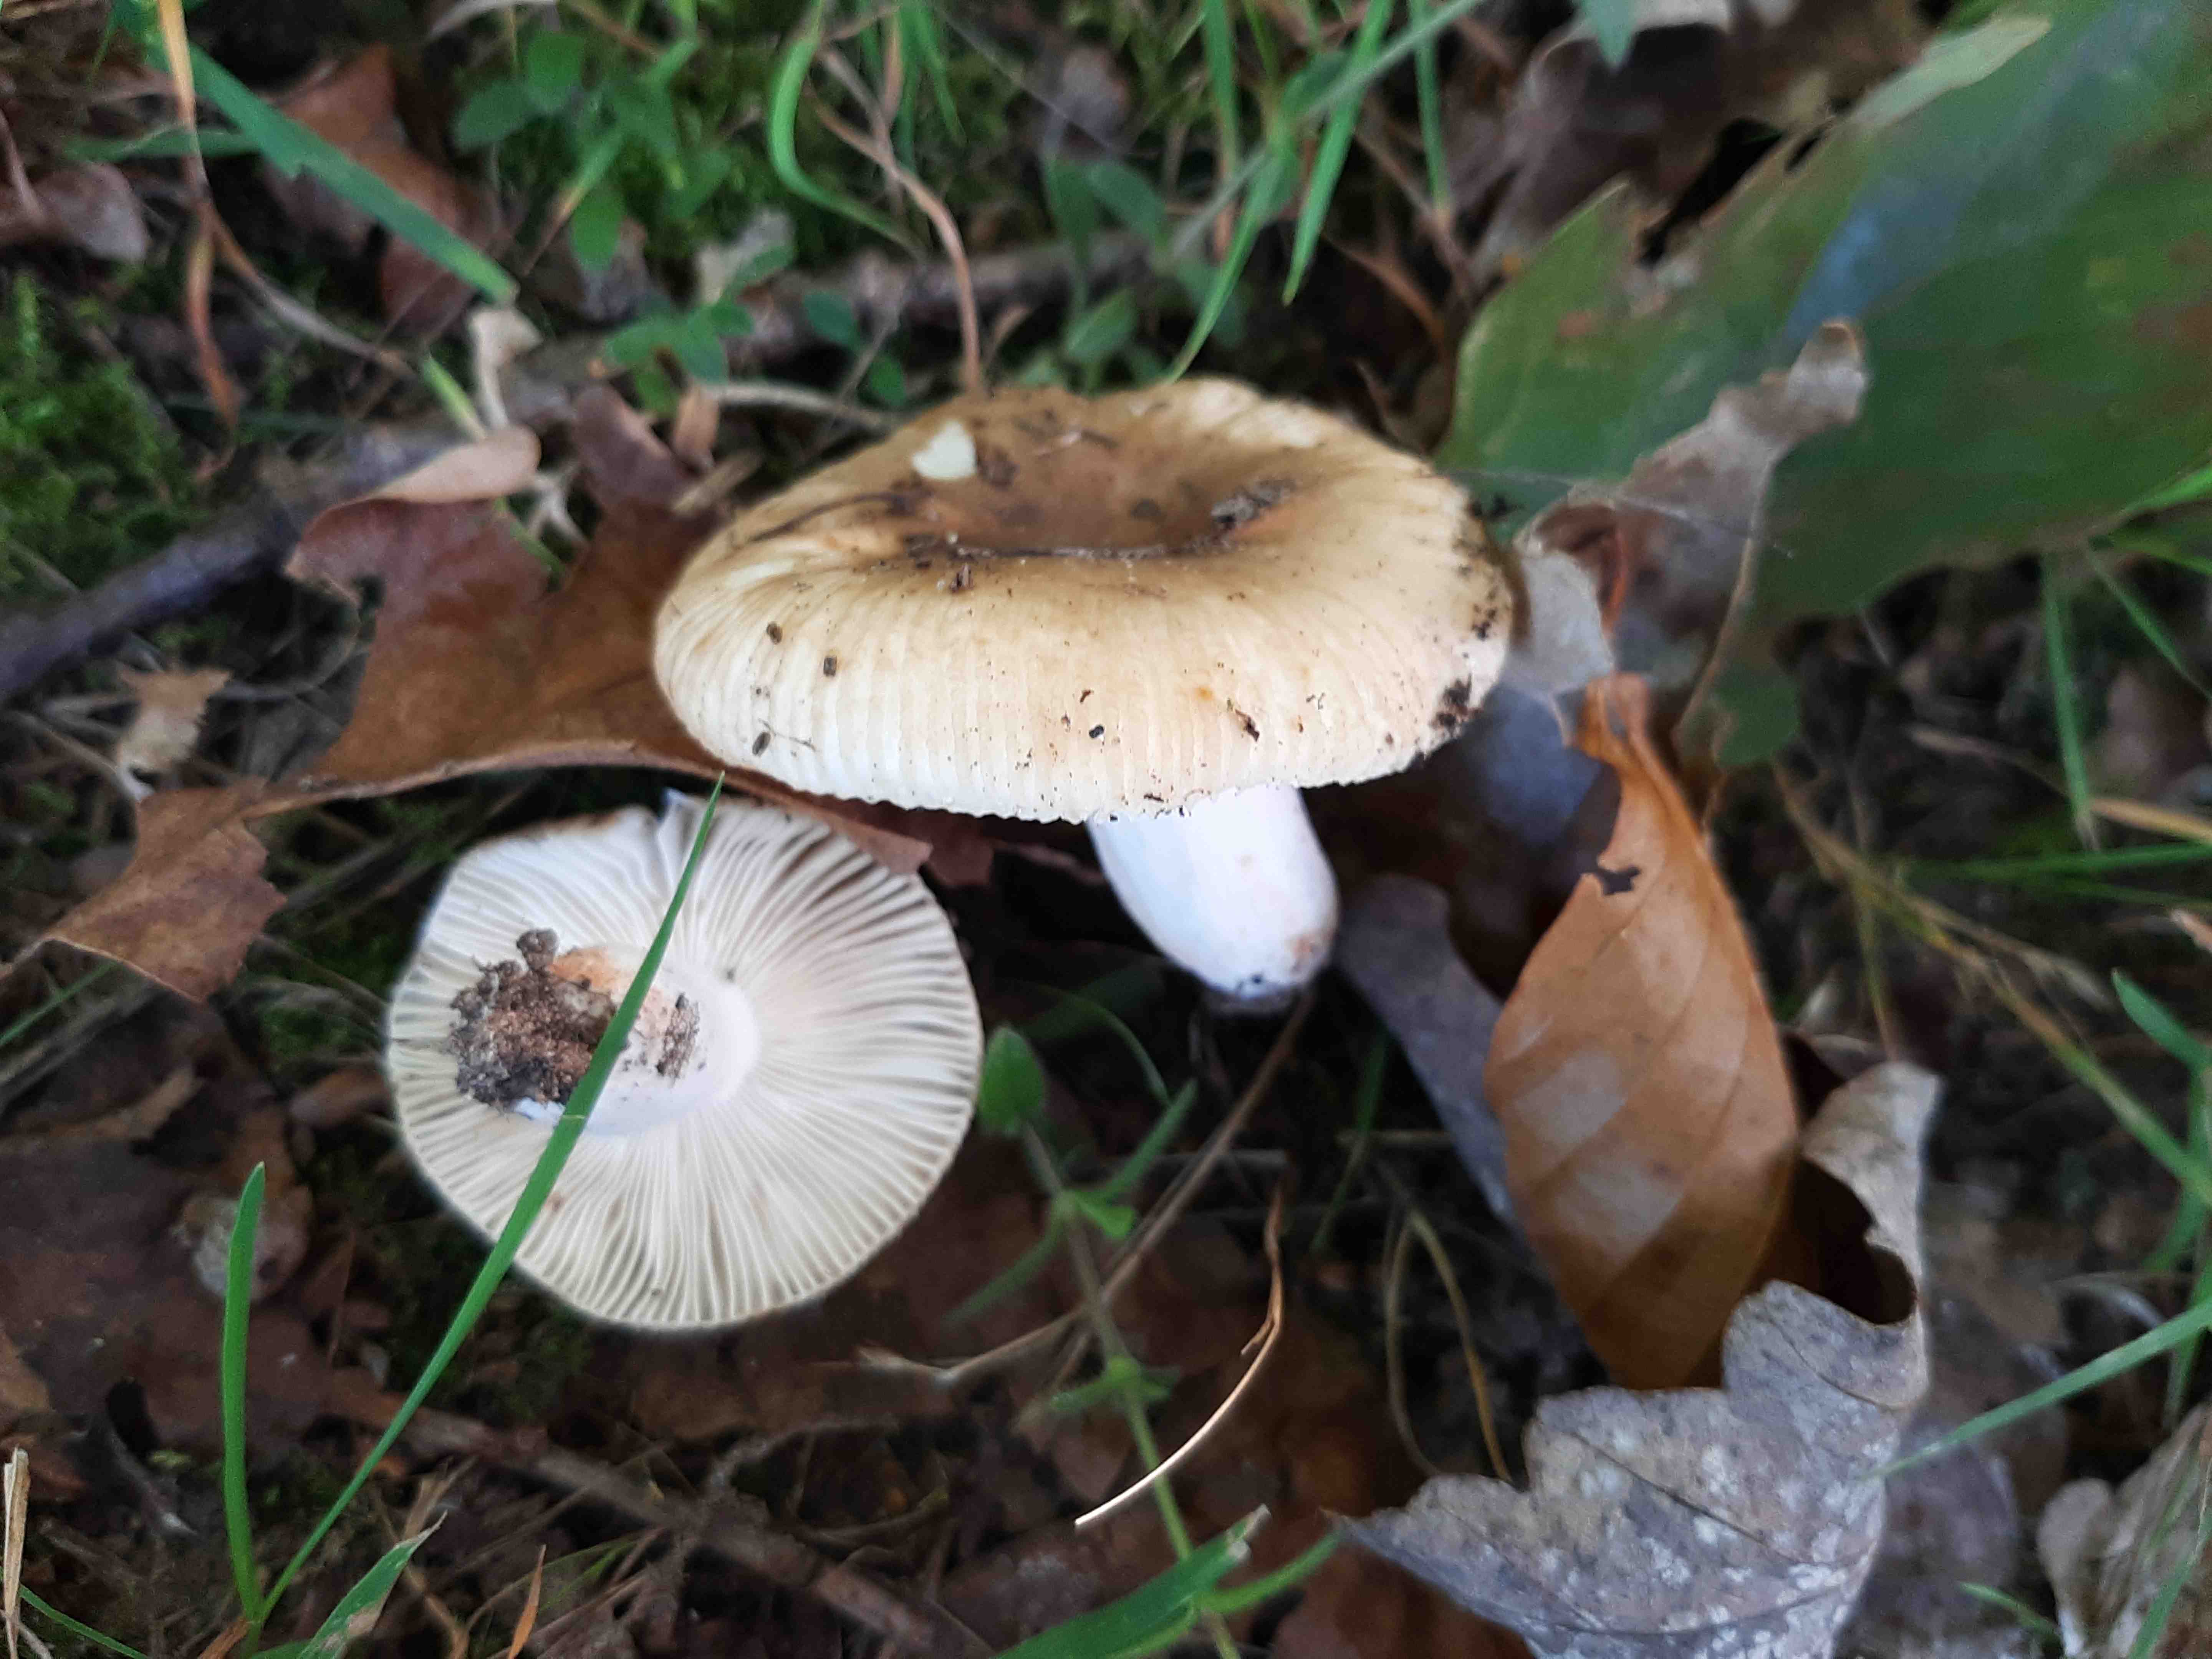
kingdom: Fungi
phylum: Basidiomycota
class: Agaricomycetes
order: Russulales
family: Russulaceae
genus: Russula
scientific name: Russula recondita
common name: mild kam-skørhat
